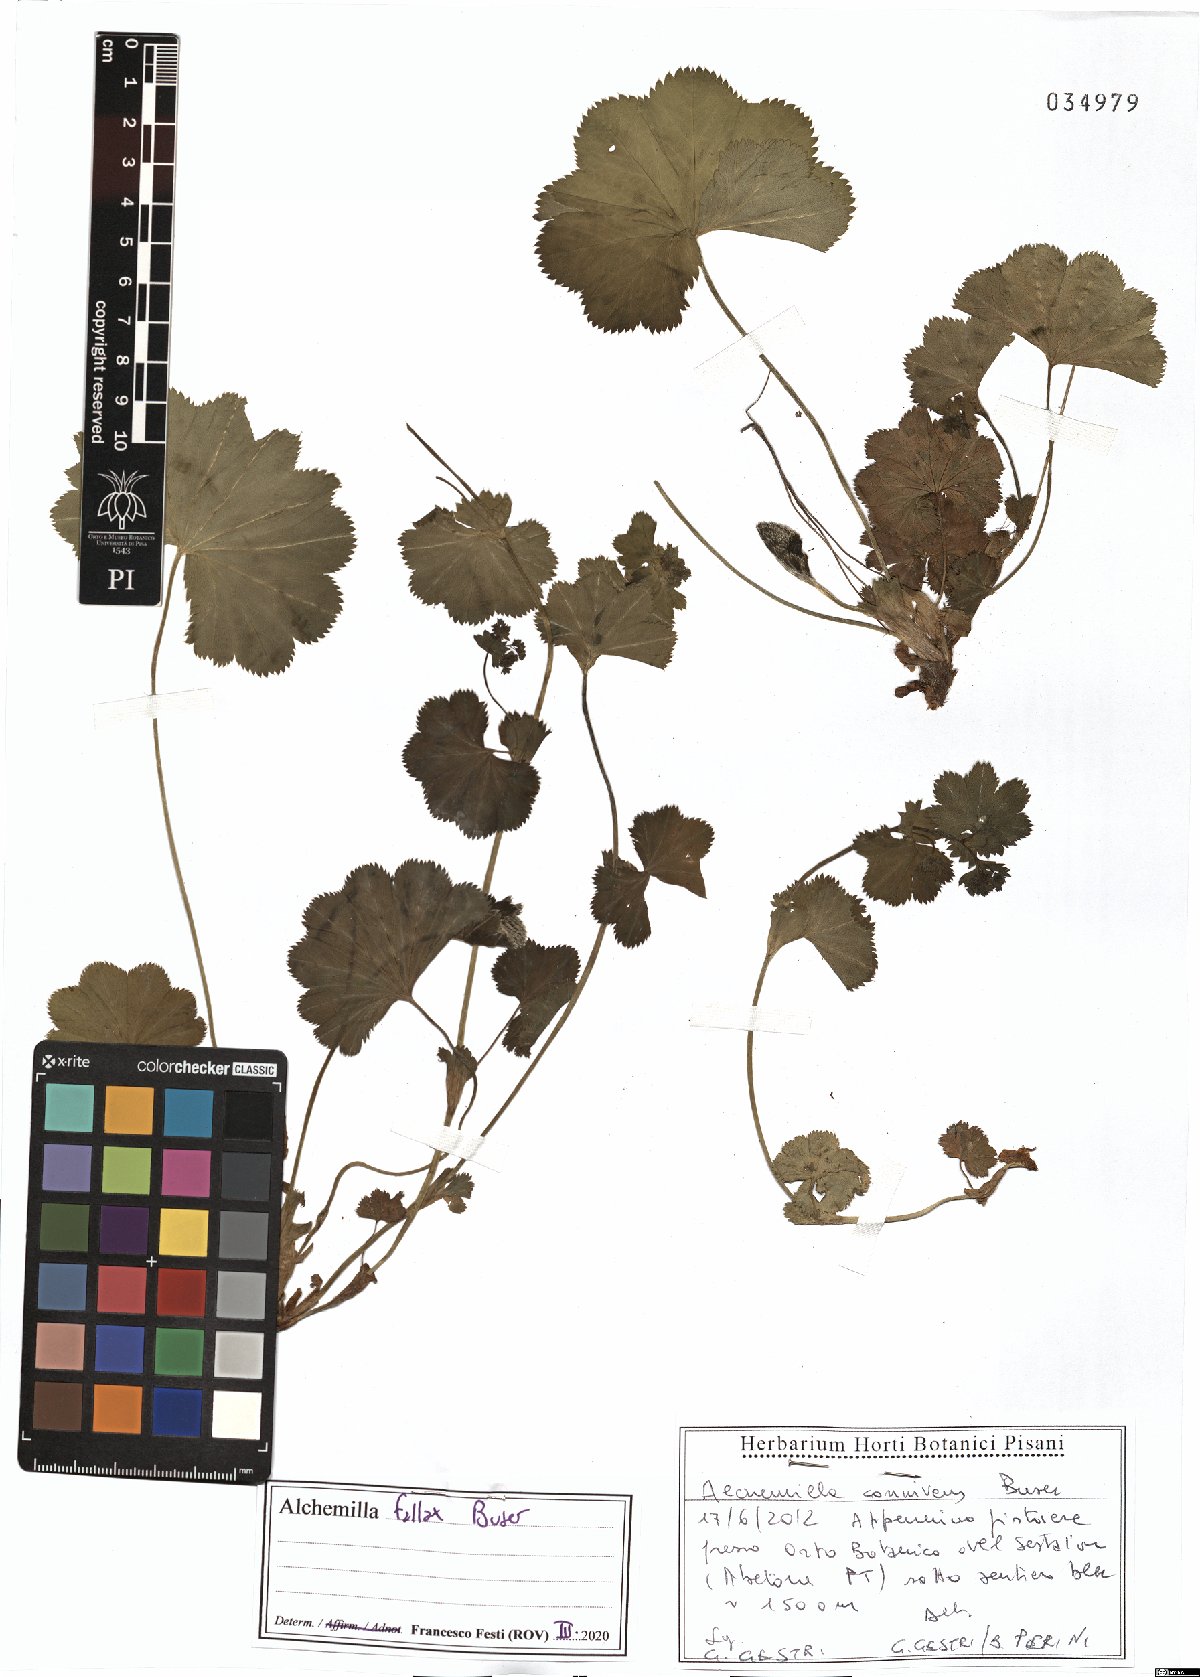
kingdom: Plantae
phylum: Tracheophyta
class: Magnoliopsida
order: Rosales
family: Rosaceae
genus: Alchemilla
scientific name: Alchemilla fallax
